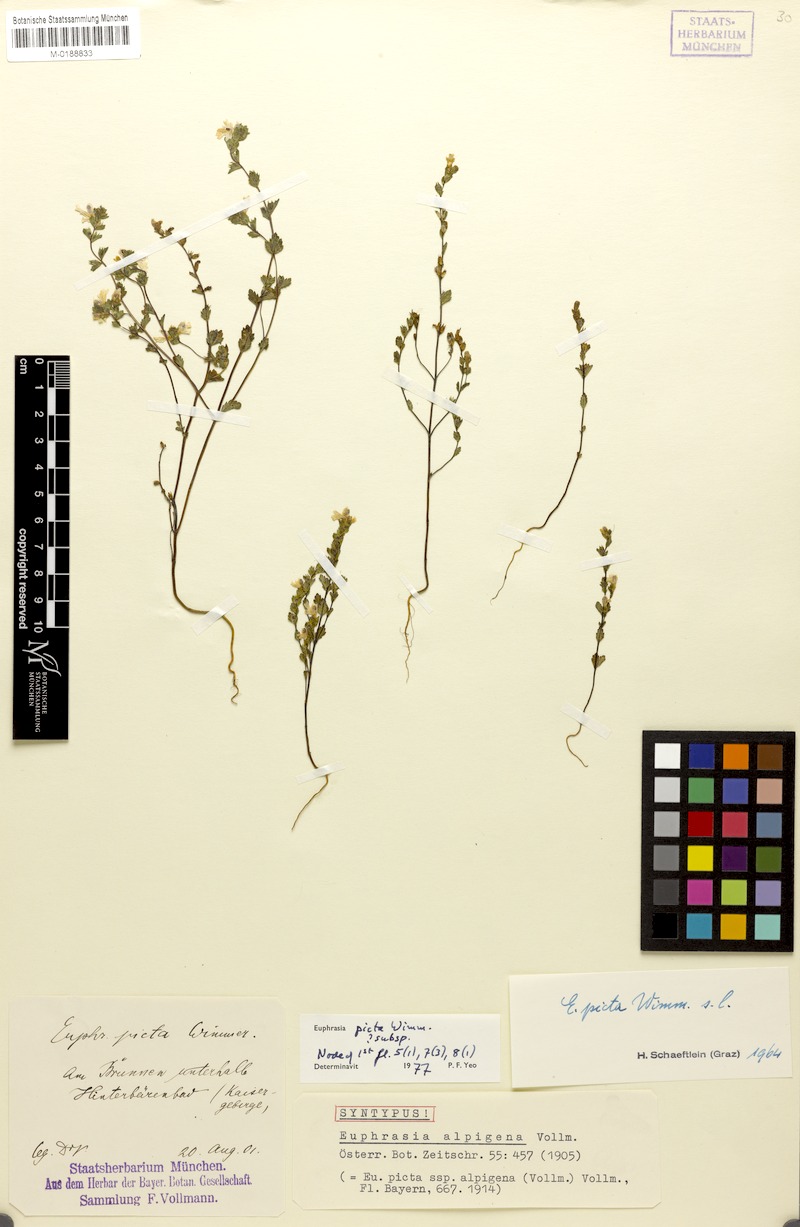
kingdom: Plantae
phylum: Tracheophyta
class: Magnoliopsida
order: Lamiales
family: Orobanchaceae
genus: Euphrasia
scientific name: Euphrasia picta
